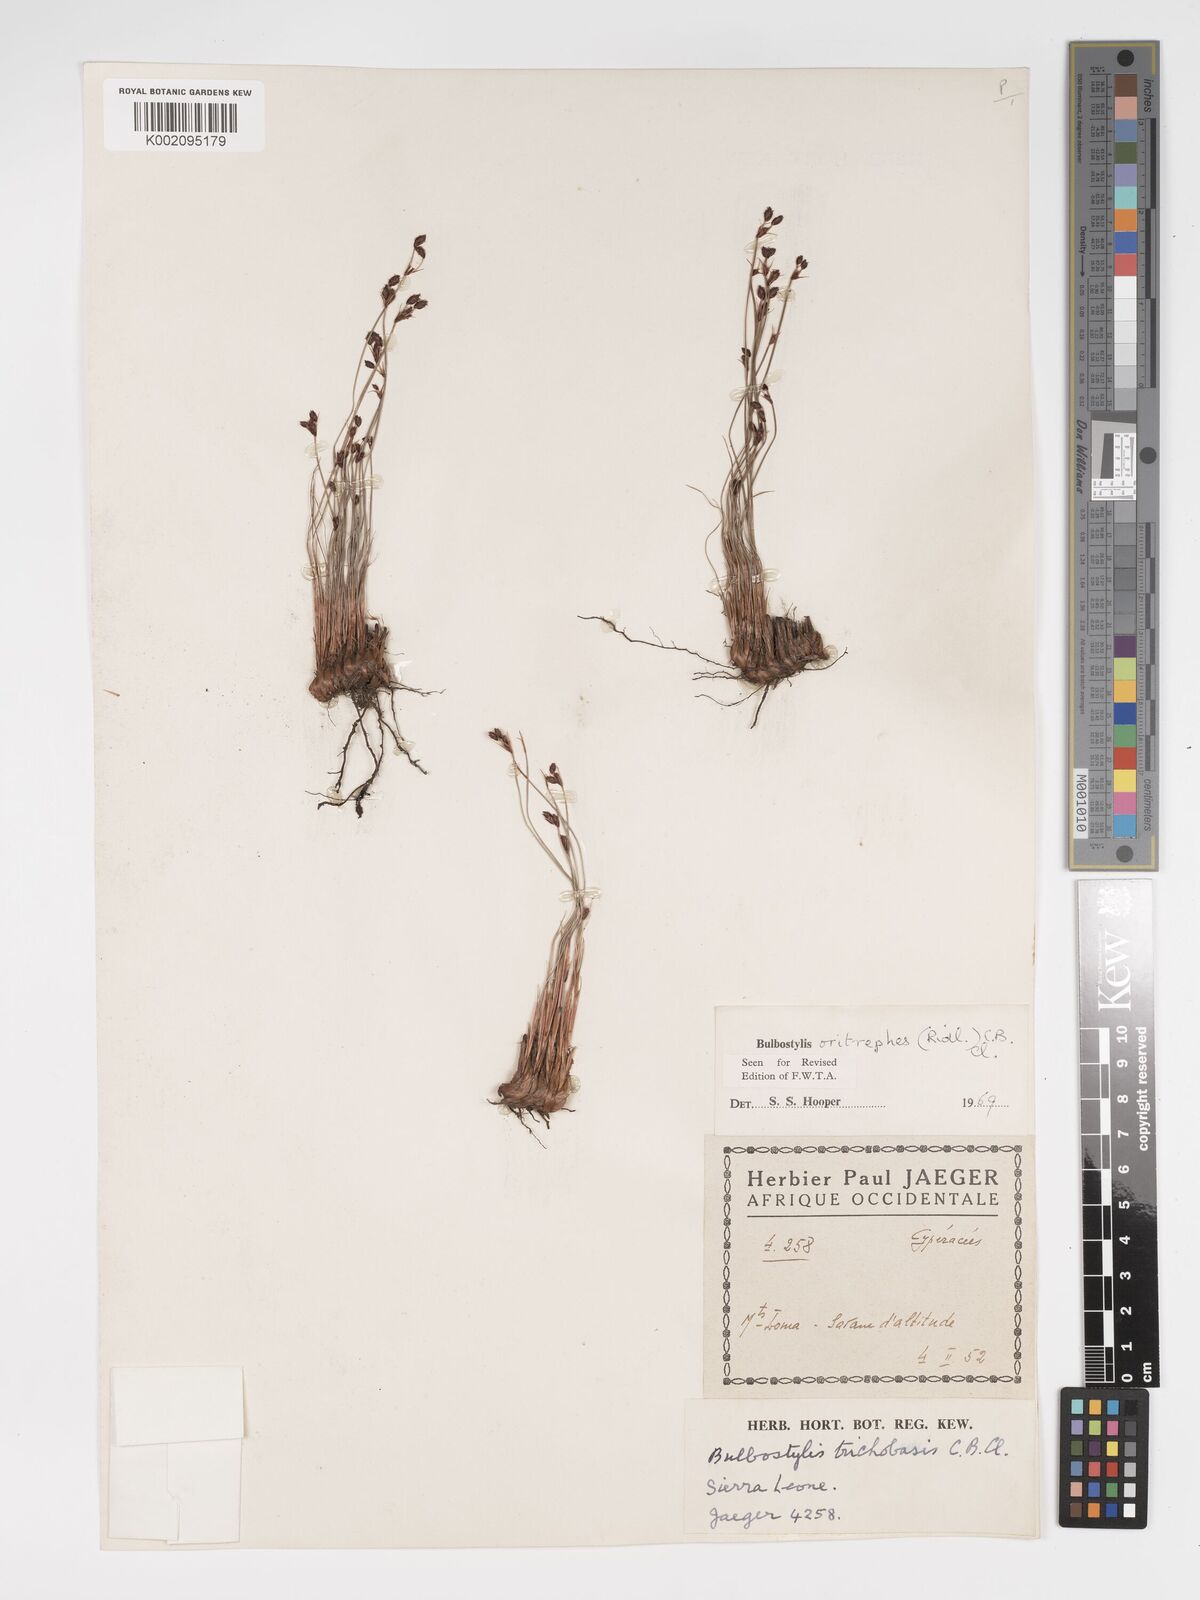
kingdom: Plantae
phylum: Tracheophyta
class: Liliopsida
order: Poales
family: Cyperaceae
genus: Bulbostylis
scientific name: Bulbostylis oritrephes
